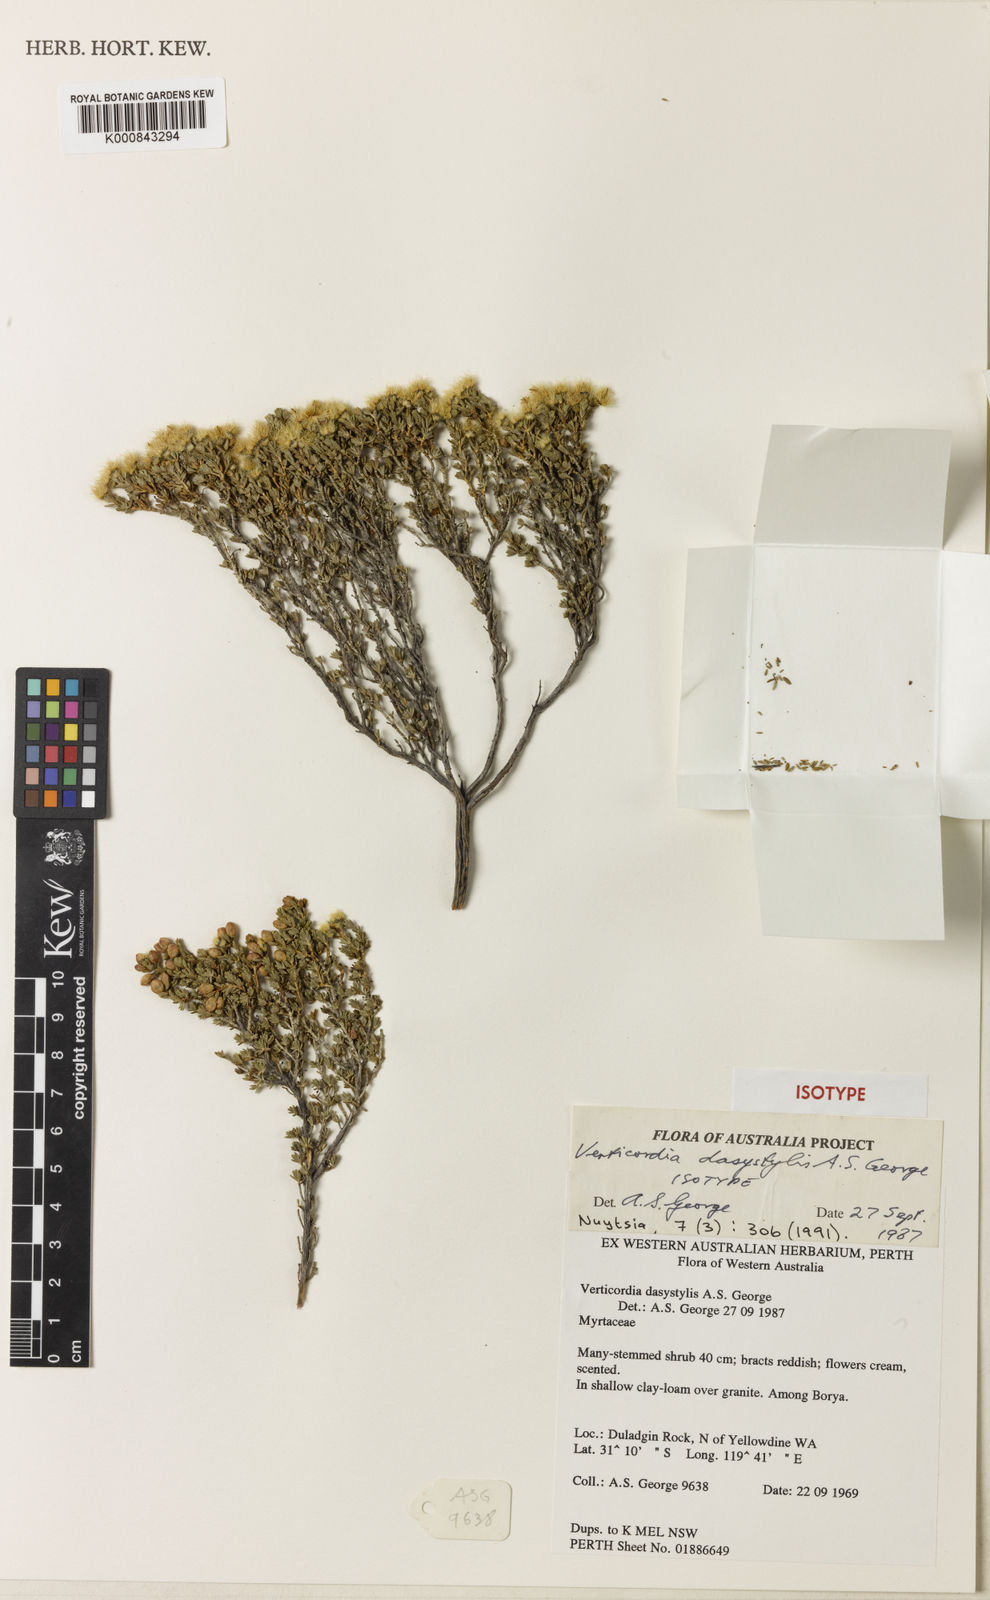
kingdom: Plantae
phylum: Tracheophyta
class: Magnoliopsida
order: Myrtales
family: Myrtaceae
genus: Verticordia
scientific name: Verticordia dasystylis
